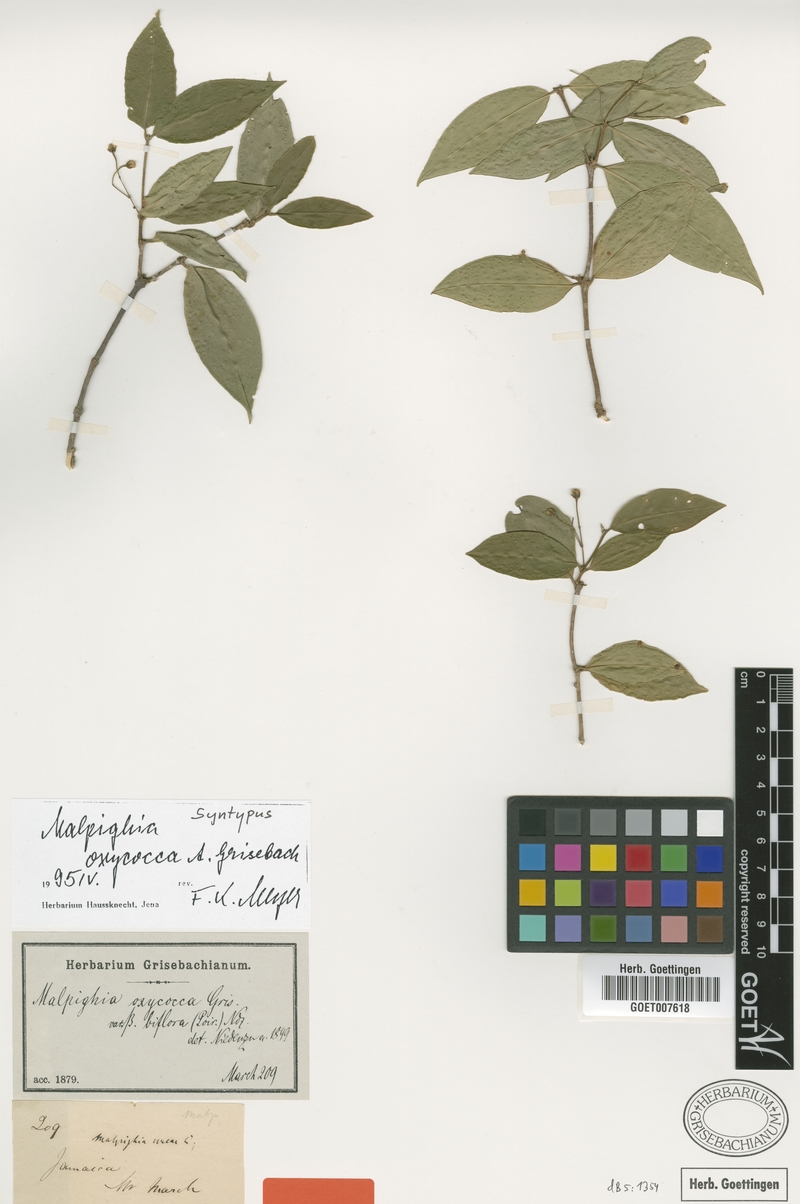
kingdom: Plantae
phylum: Tracheophyta
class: Magnoliopsida
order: Malpighiales
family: Malpighiaceae
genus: Malpighia
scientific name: Malpighia oxycocca
